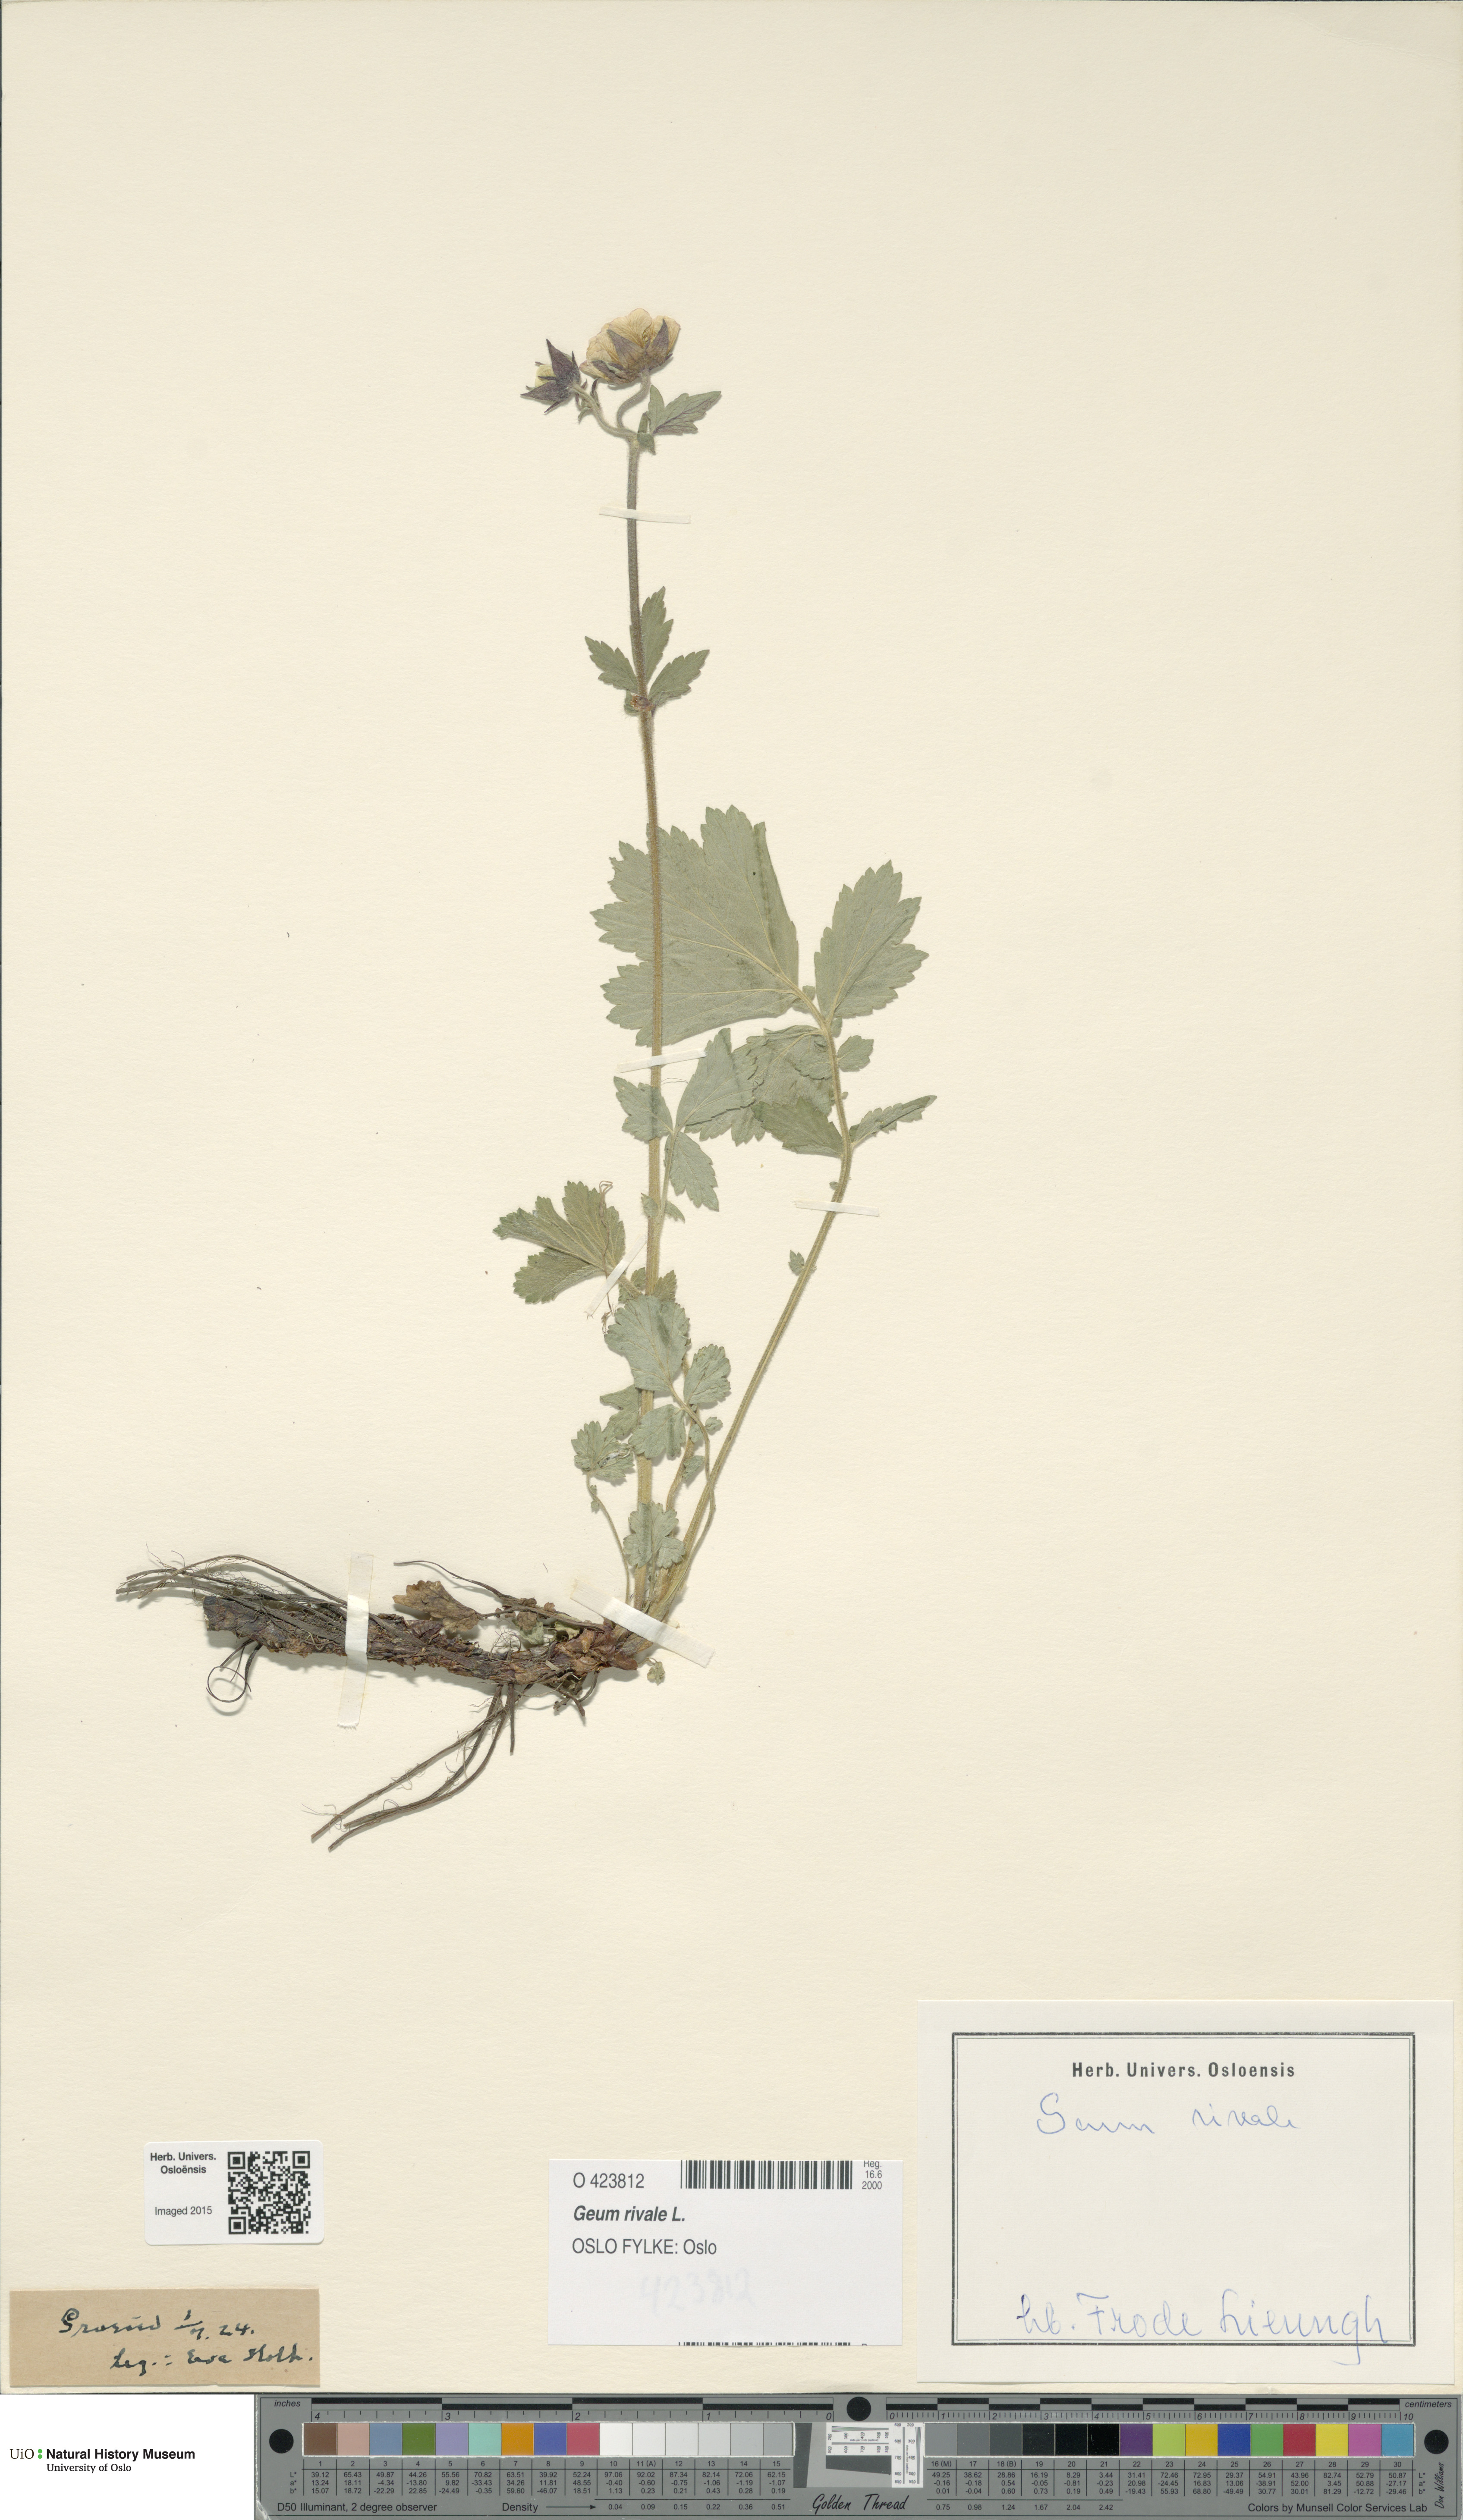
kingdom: Plantae
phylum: Tracheophyta
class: Magnoliopsida
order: Rosales
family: Rosaceae
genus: Geum
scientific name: Geum rivale
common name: Water avens
